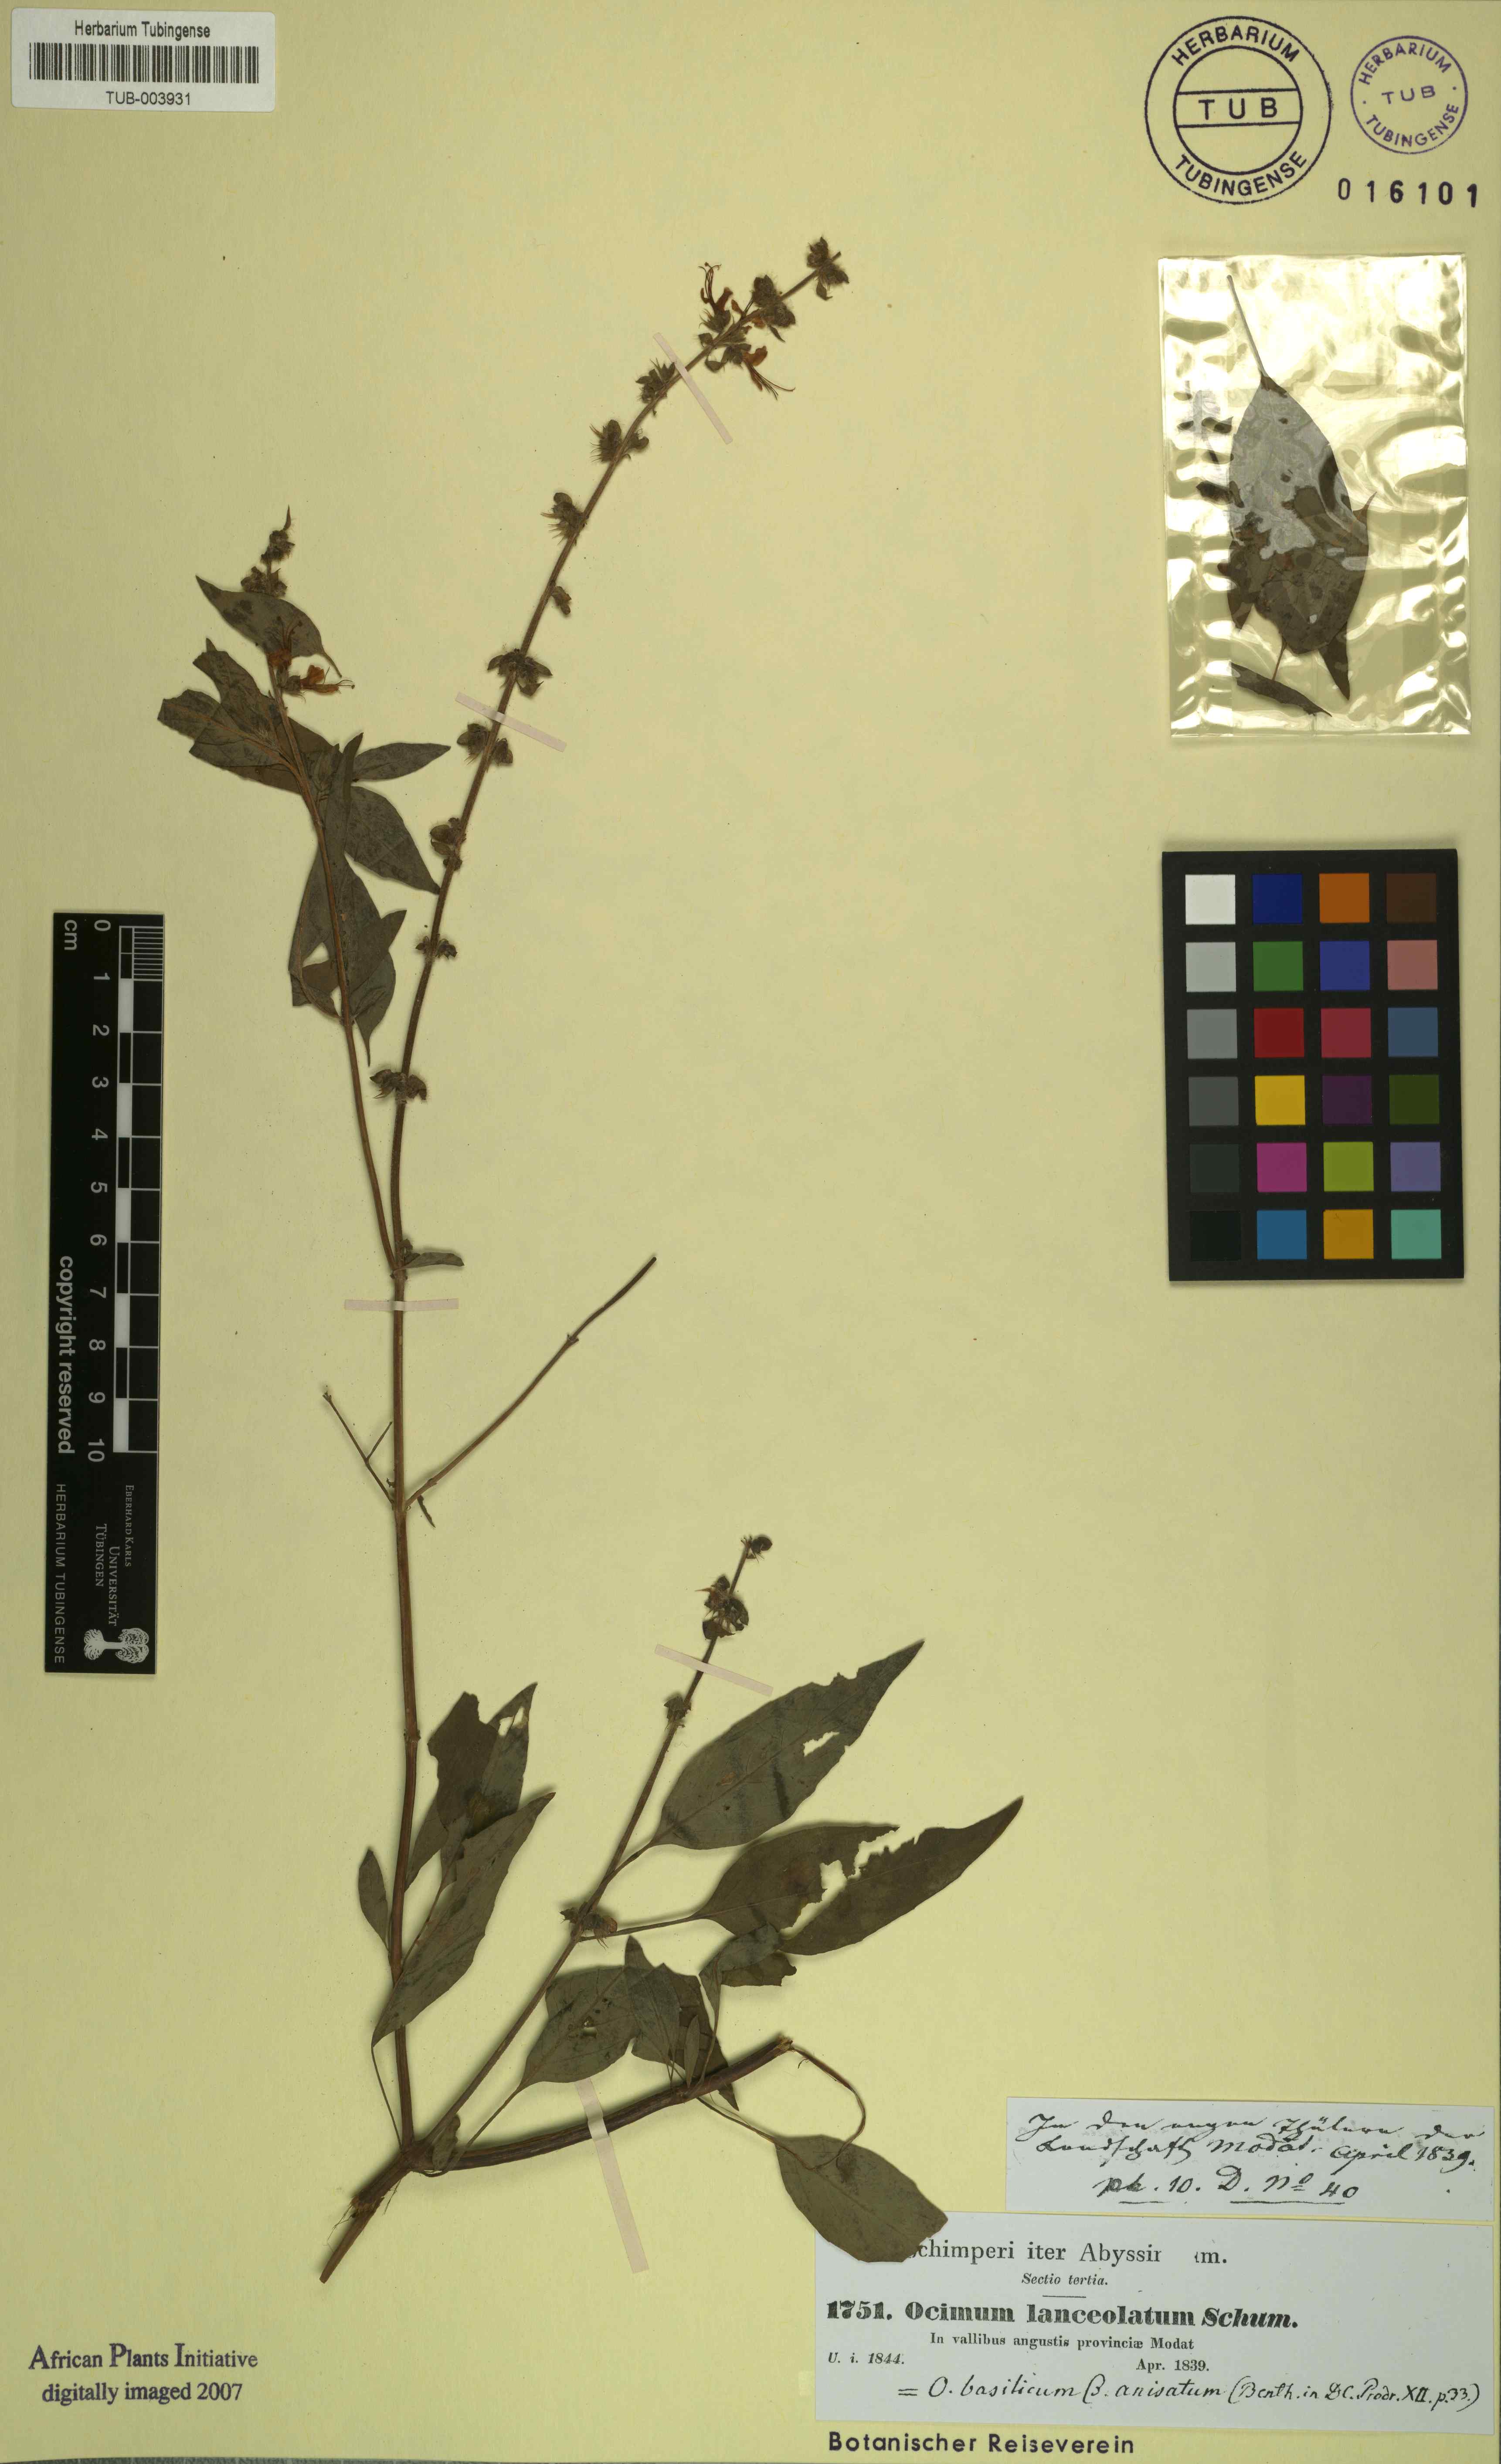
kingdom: Plantae
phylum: Tracheophyta
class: Magnoliopsida
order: Lamiales
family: Lamiaceae
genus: Ocimum
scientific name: Ocimum basilicum
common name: Sweet basil
